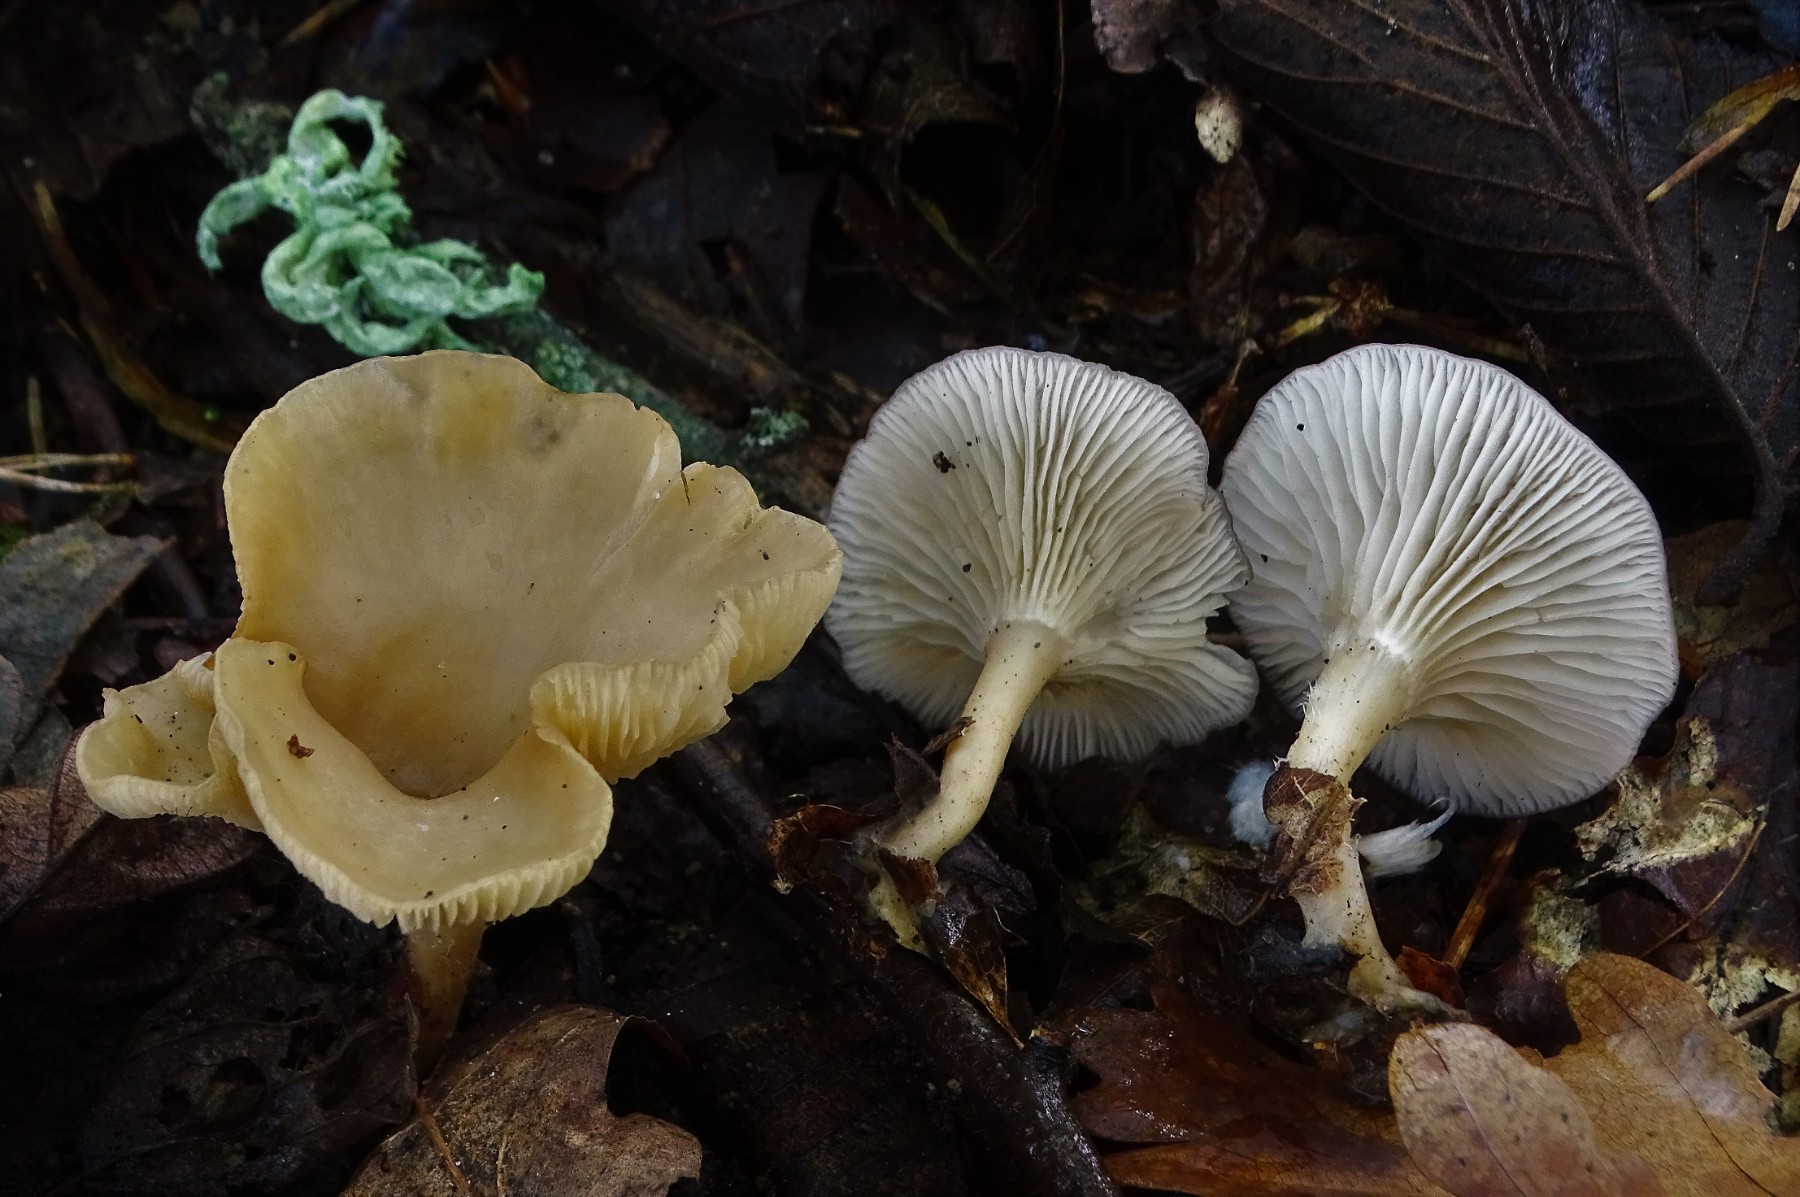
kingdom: Fungi
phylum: Basidiomycota
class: Agaricomycetes
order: Agaricales
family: Tricholomataceae
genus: Clitocybe
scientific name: Clitocybe phaeophthalma
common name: stinkende tragthat
